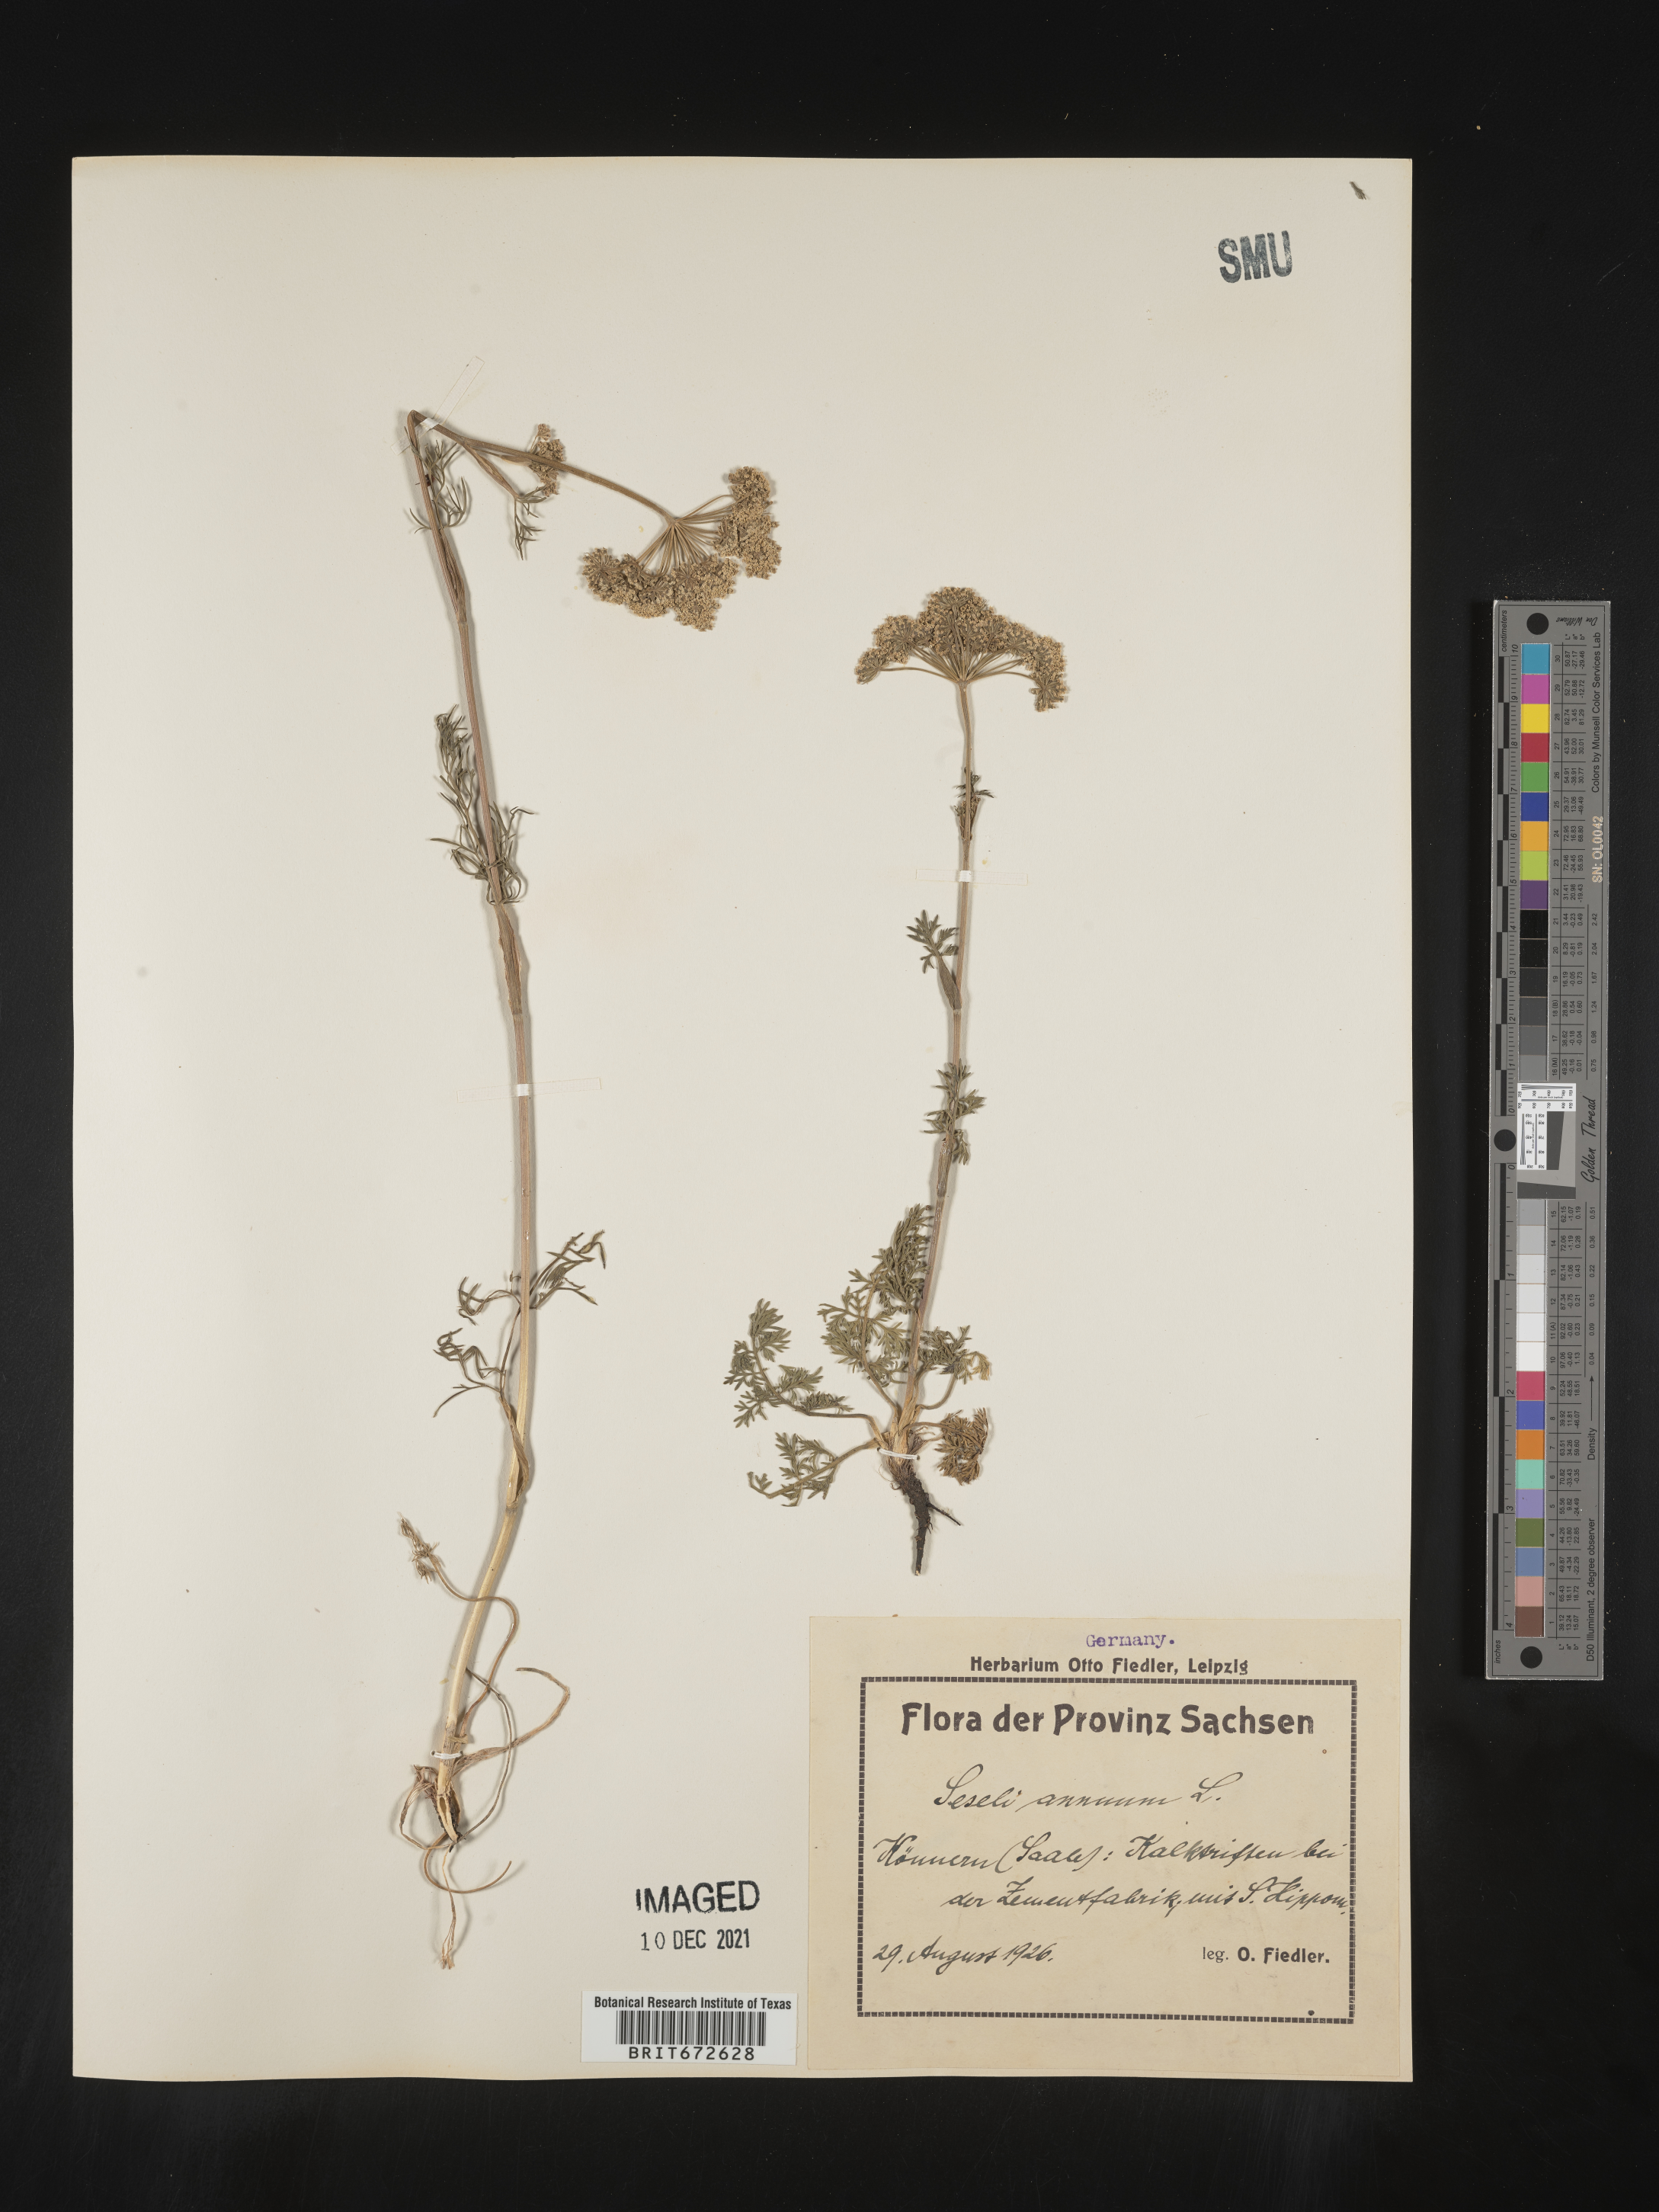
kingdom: Plantae
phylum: Tracheophyta
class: Magnoliopsida
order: Apiales
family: Apiaceae
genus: Seseli
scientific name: Seseli
